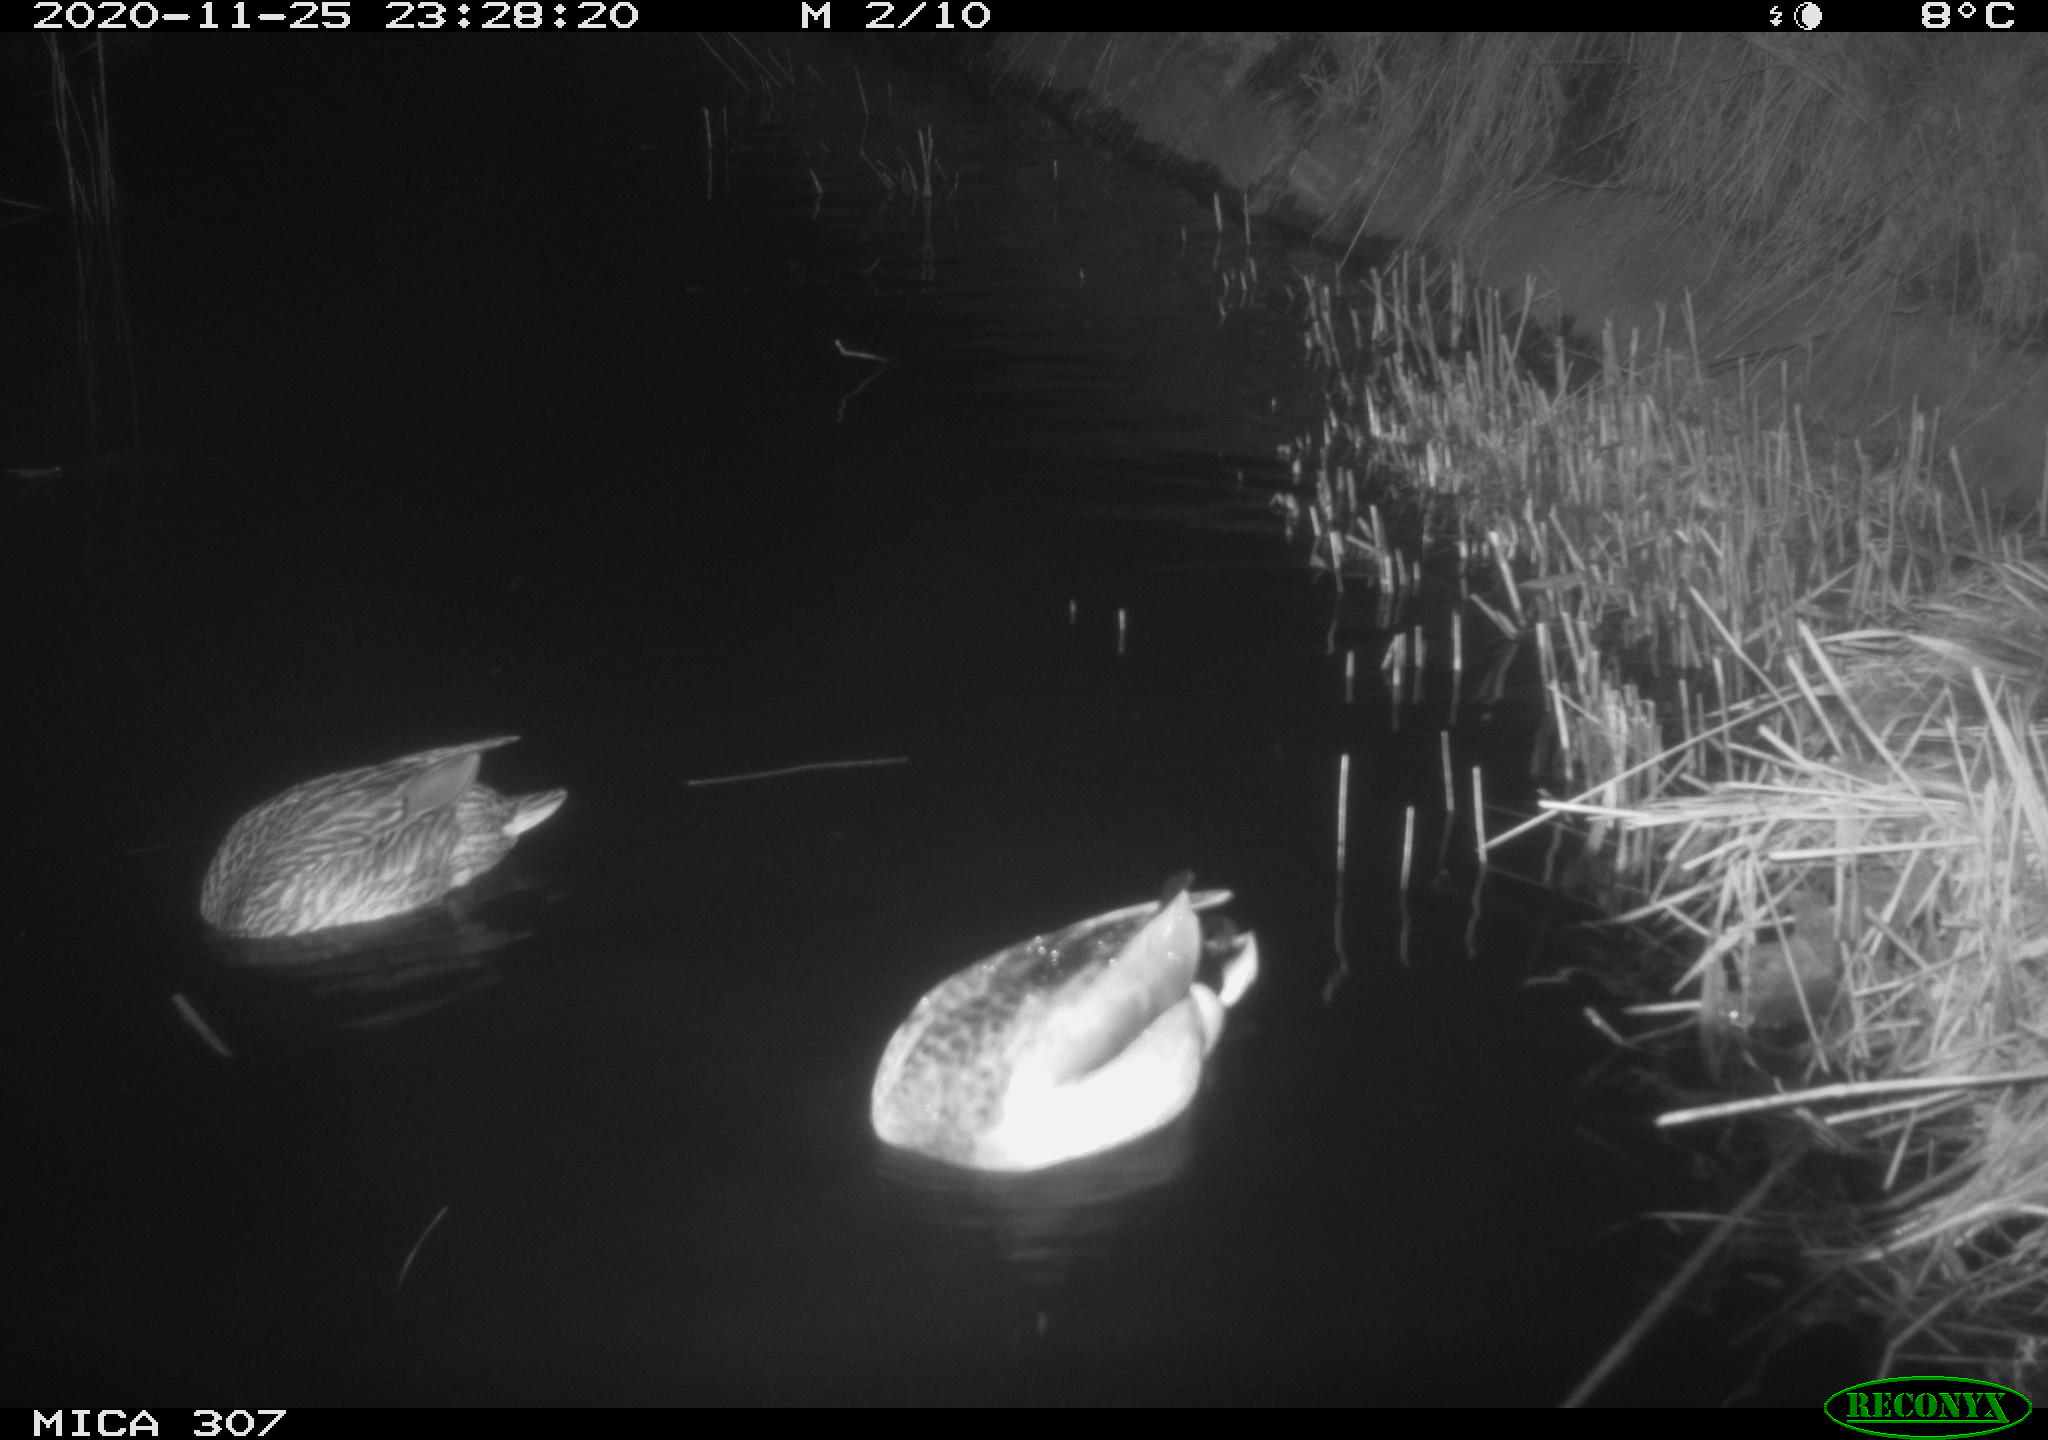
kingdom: Animalia
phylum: Chordata
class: Aves
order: Anseriformes
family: Anatidae
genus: Anas
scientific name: Anas platyrhynchos
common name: Mallard
